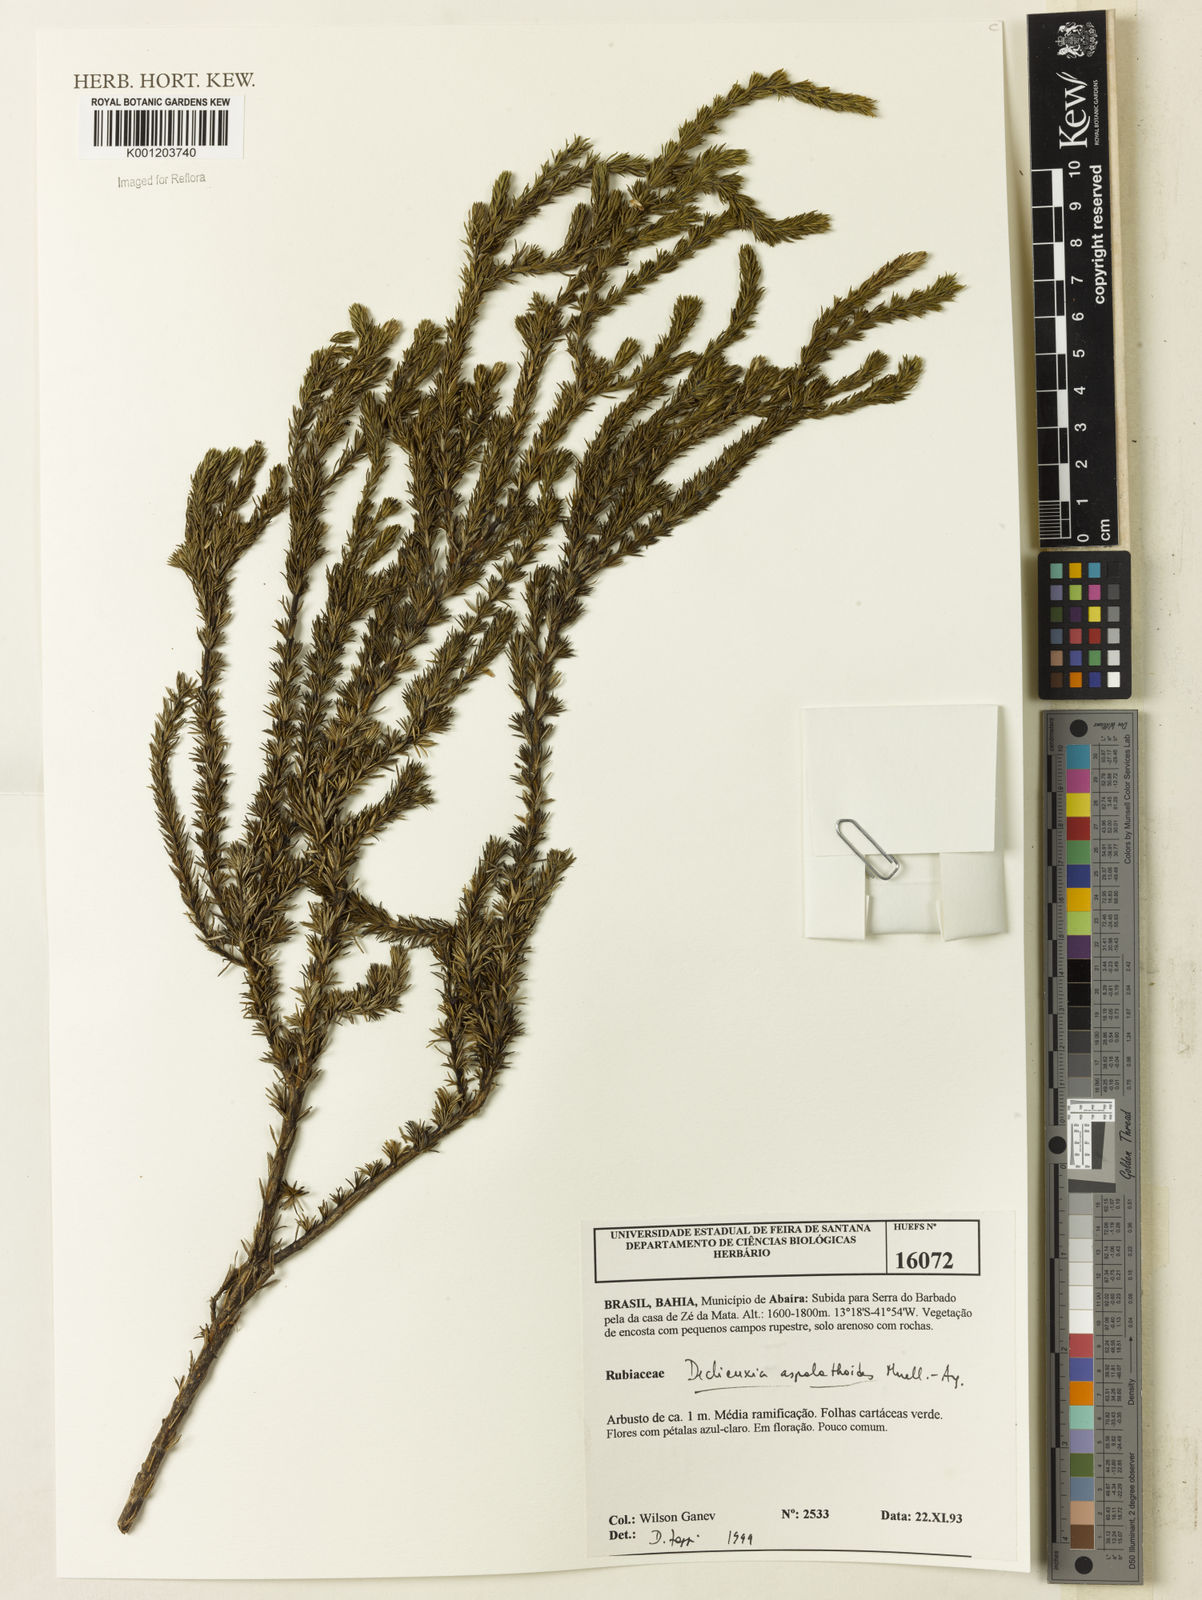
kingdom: Plantae
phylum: Tracheophyta
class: Magnoliopsida
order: Gentianales
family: Rubiaceae
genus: Declieuxia
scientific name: Declieuxia
